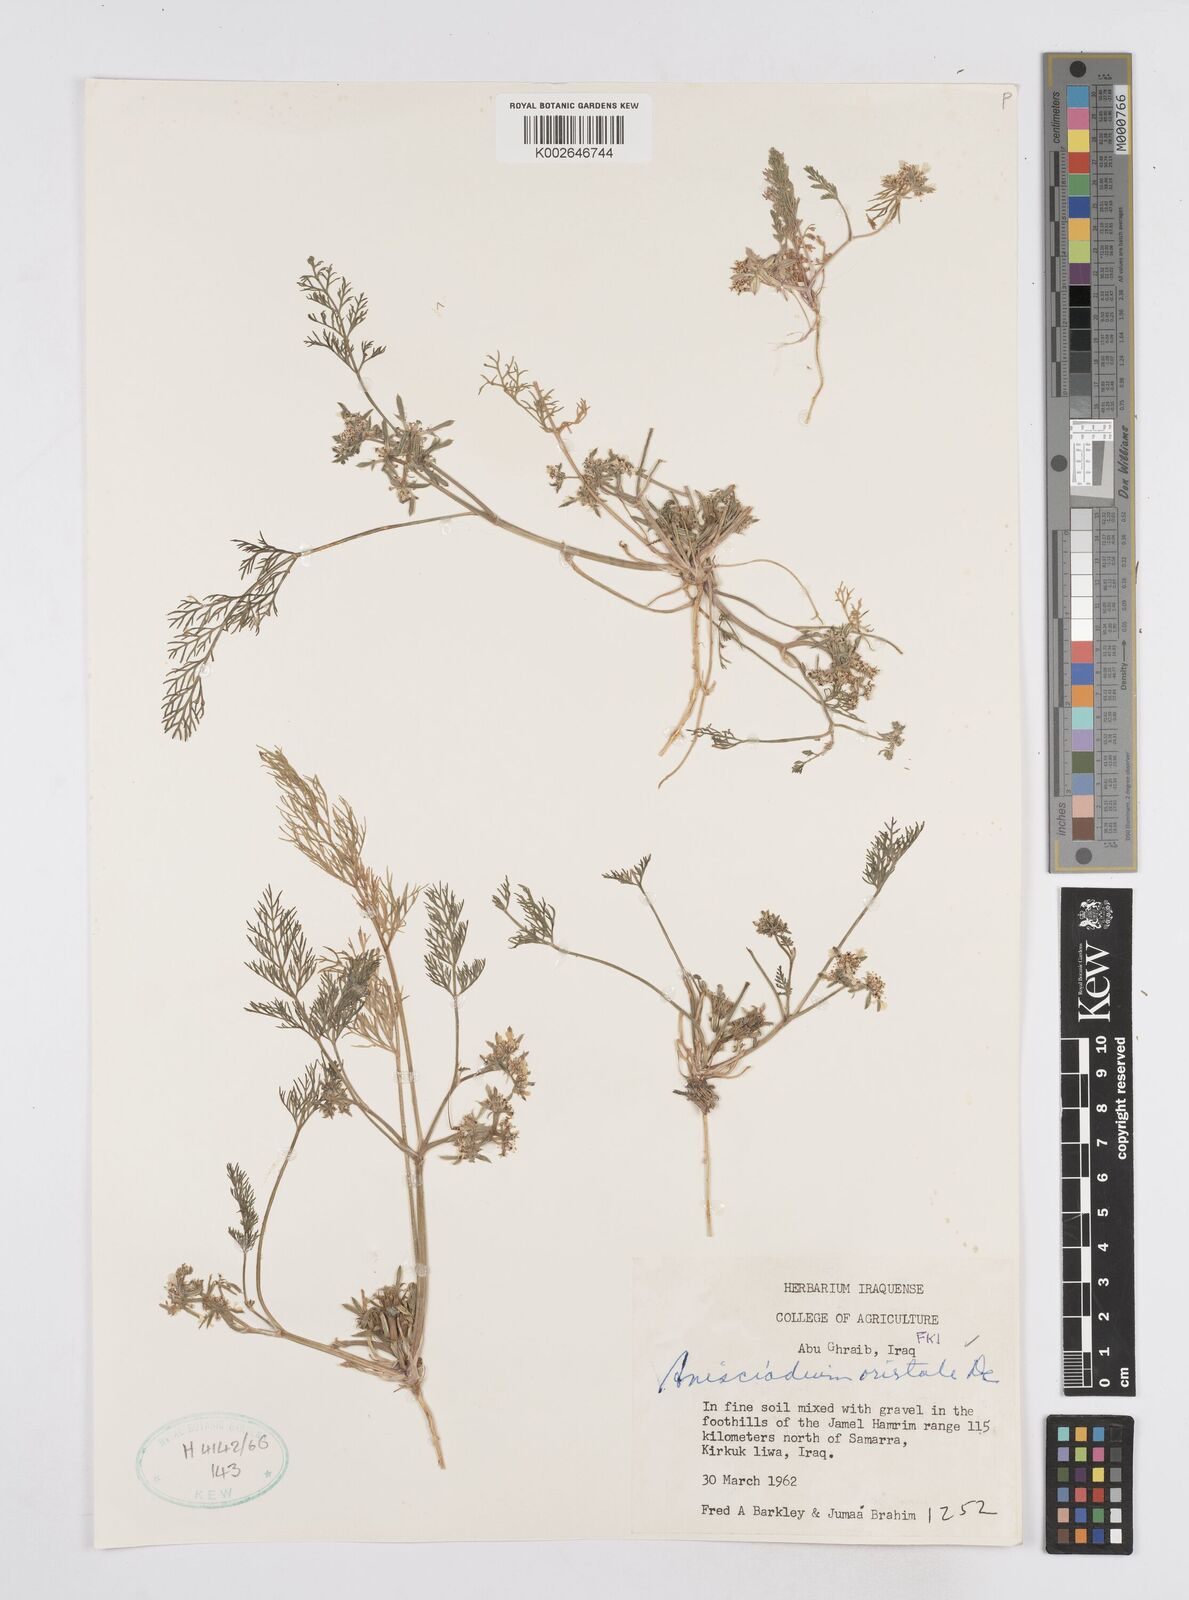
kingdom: Plantae
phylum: Tracheophyta
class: Magnoliopsida
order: Apiales
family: Apiaceae
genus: Anisosciadium
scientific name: Anisosciadium orientale
